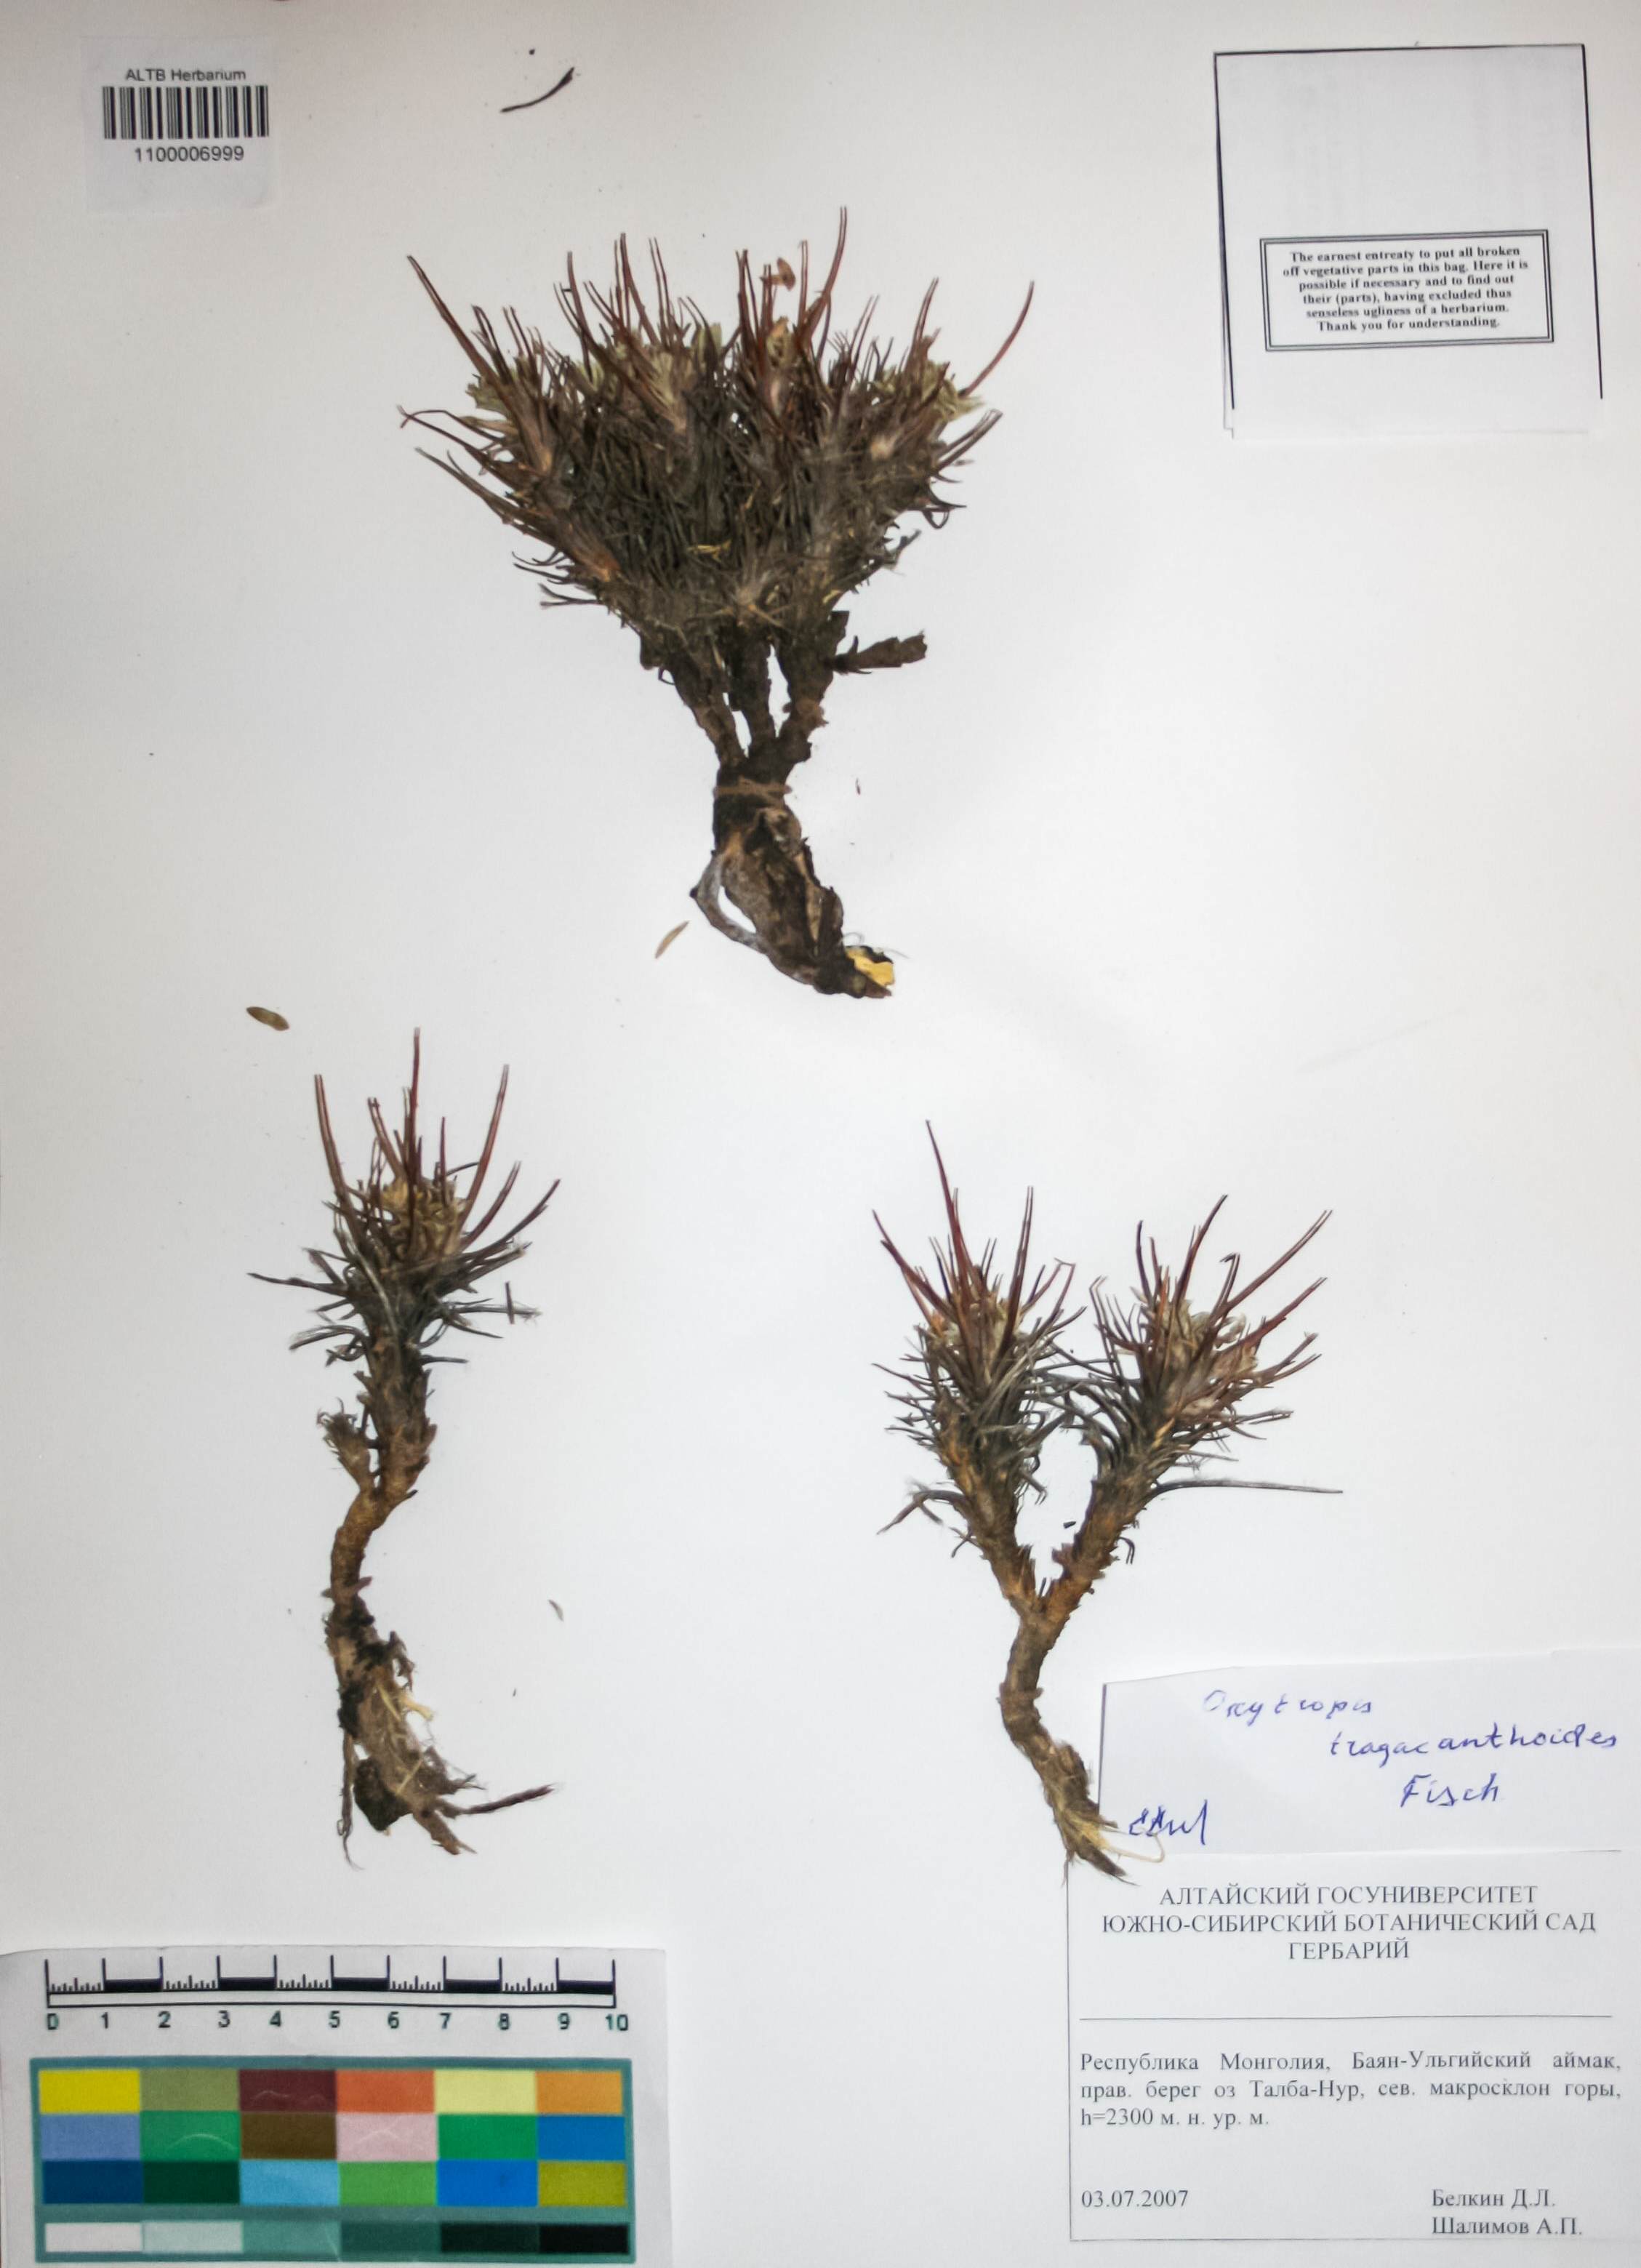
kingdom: Plantae
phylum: Tracheophyta
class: Magnoliopsida
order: Fabales
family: Fabaceae
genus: Oxytropis
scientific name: Oxytropis tragacanthoides
